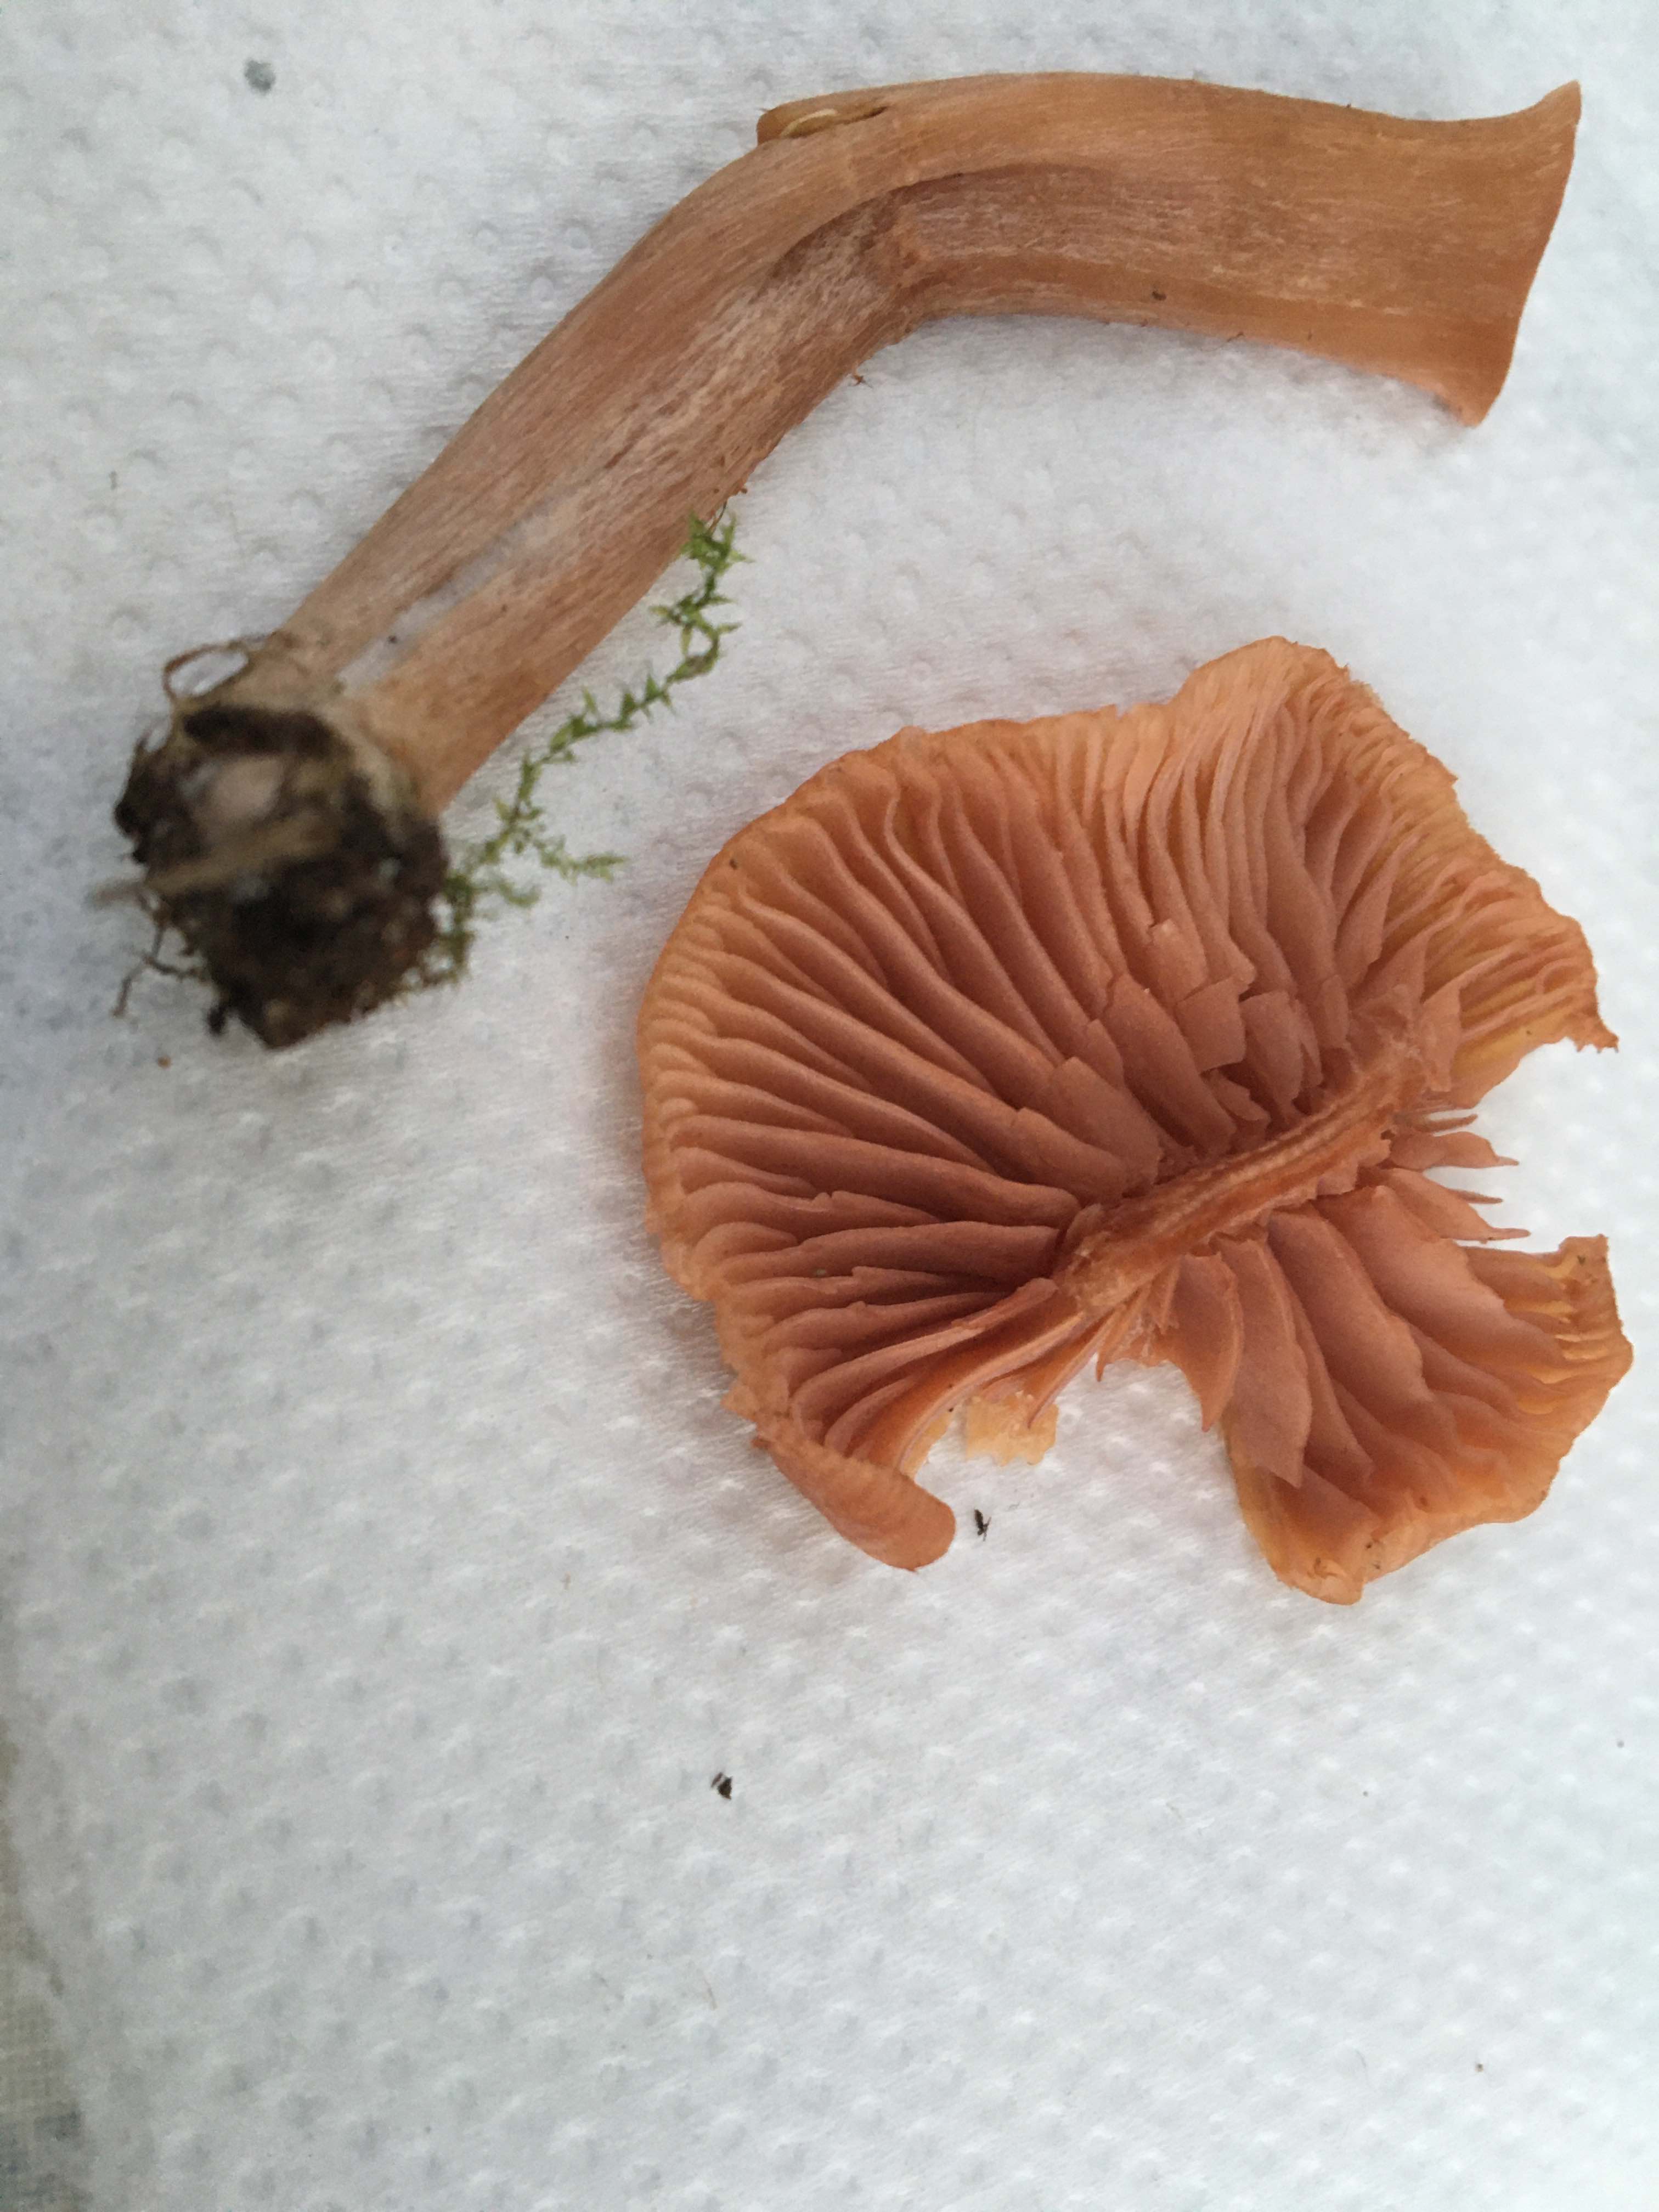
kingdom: Fungi
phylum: Basidiomycota
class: Agaricomycetes
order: Agaricales
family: Hydnangiaceae
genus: Laccaria
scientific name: Laccaria laccata
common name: rød ametysthat
